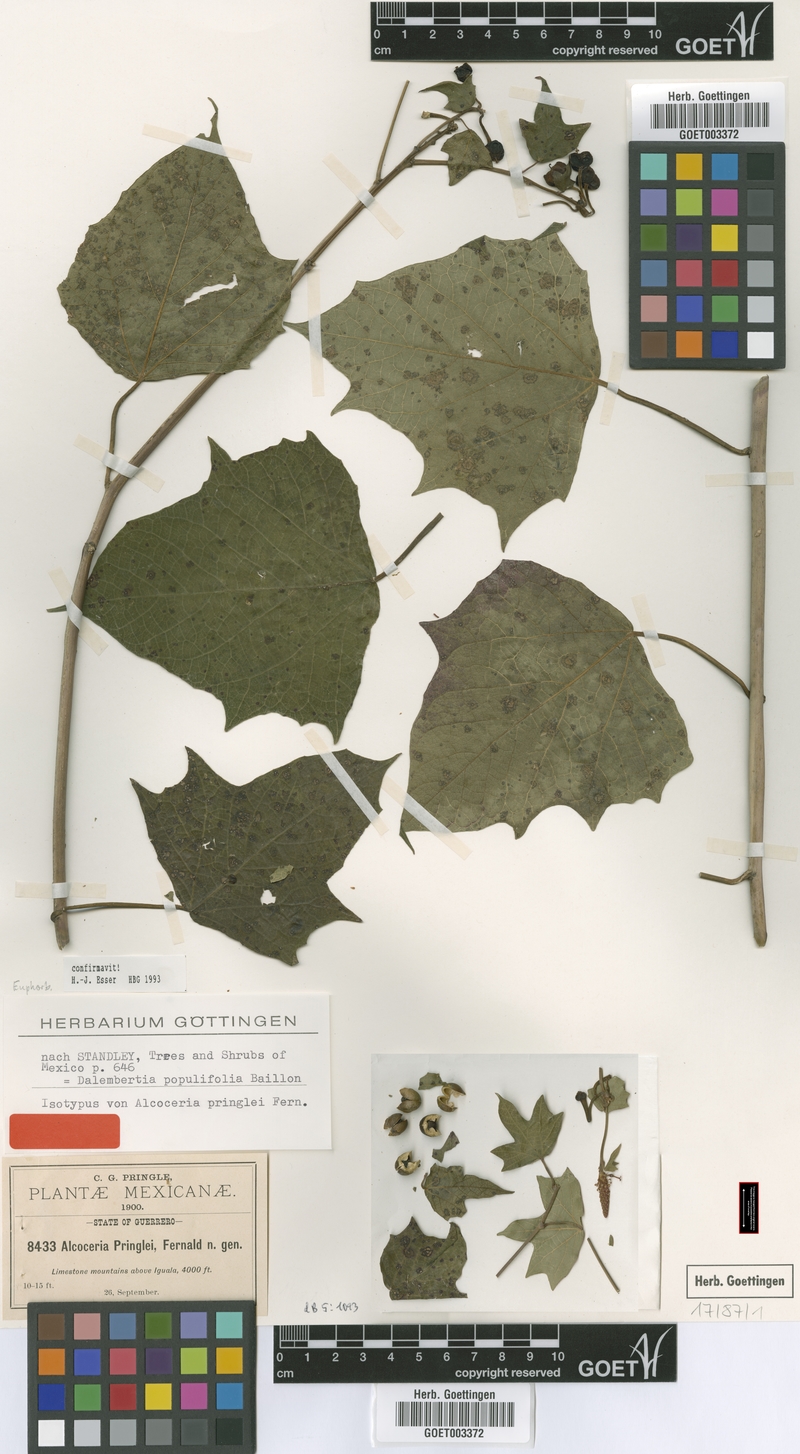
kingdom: Plantae
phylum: Tracheophyta
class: Magnoliopsida
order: Malpighiales
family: Euphorbiaceae
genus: Dalembertia
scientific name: Dalembertia populifolia
